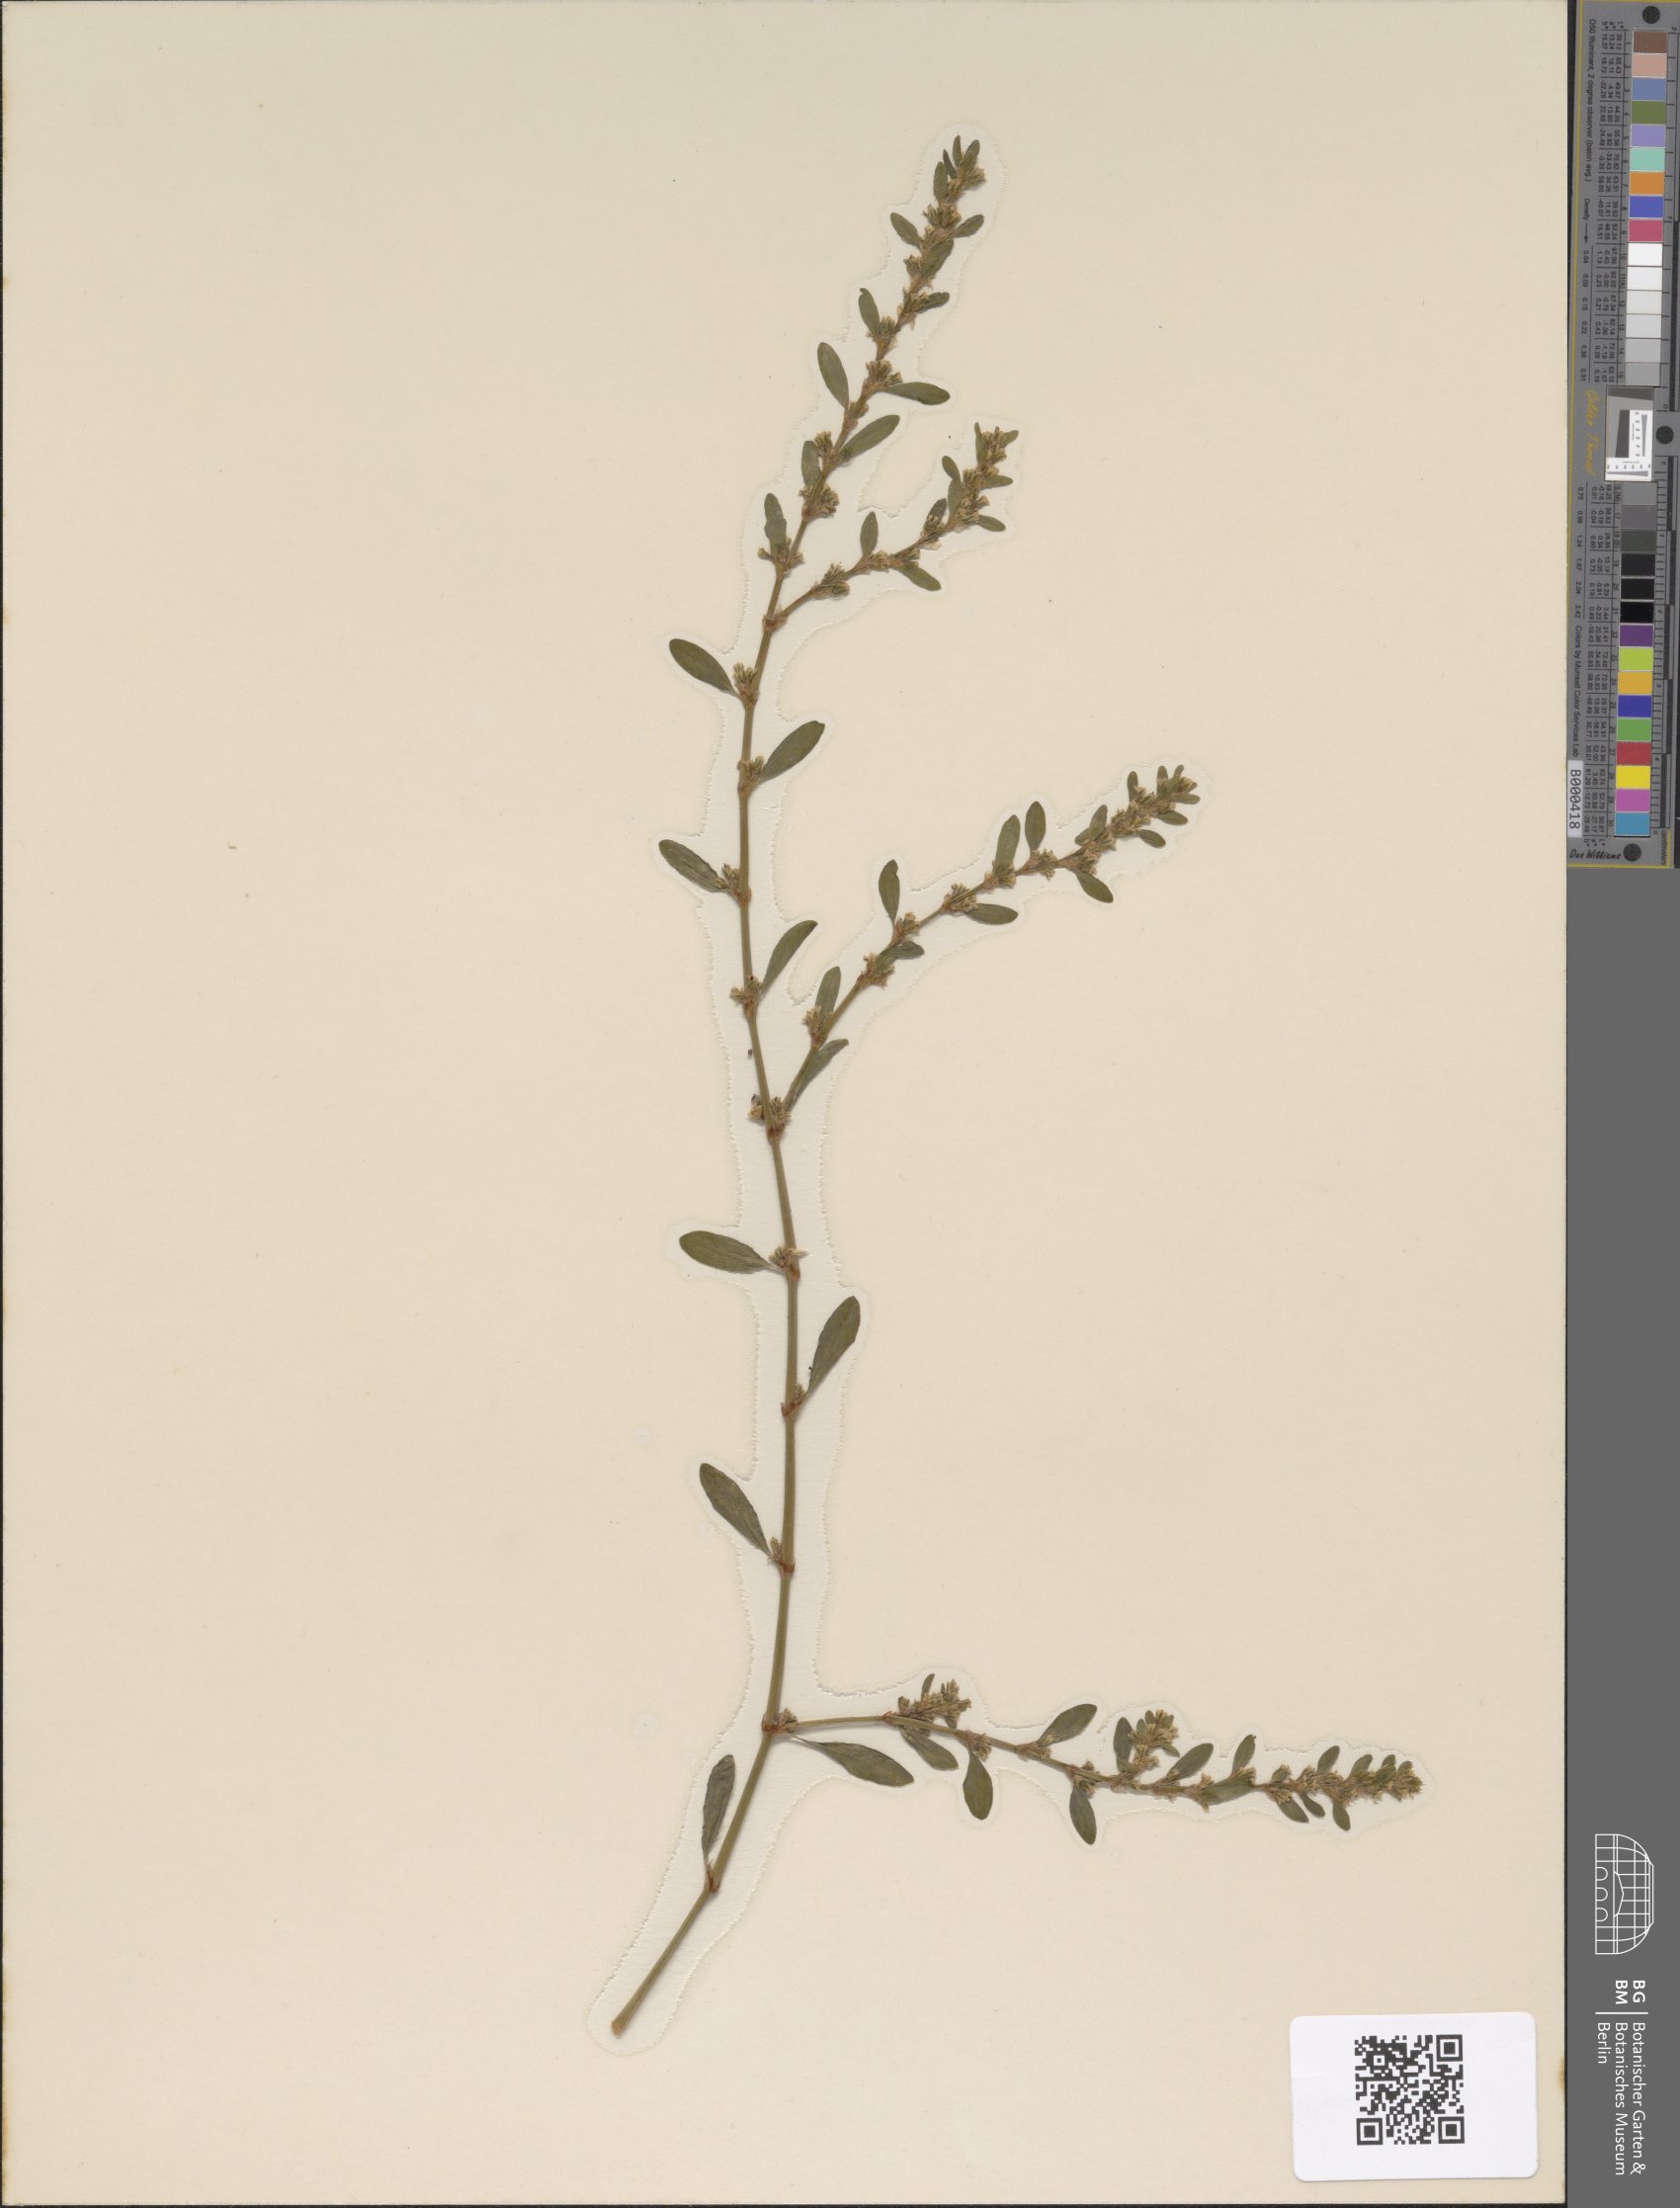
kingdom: Plantae
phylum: Tracheophyta
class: Magnoliopsida
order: Caryophyllales
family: Polygonaceae
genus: Polygonum
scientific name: Polygonum aviculare
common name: Prostrate knotweed
